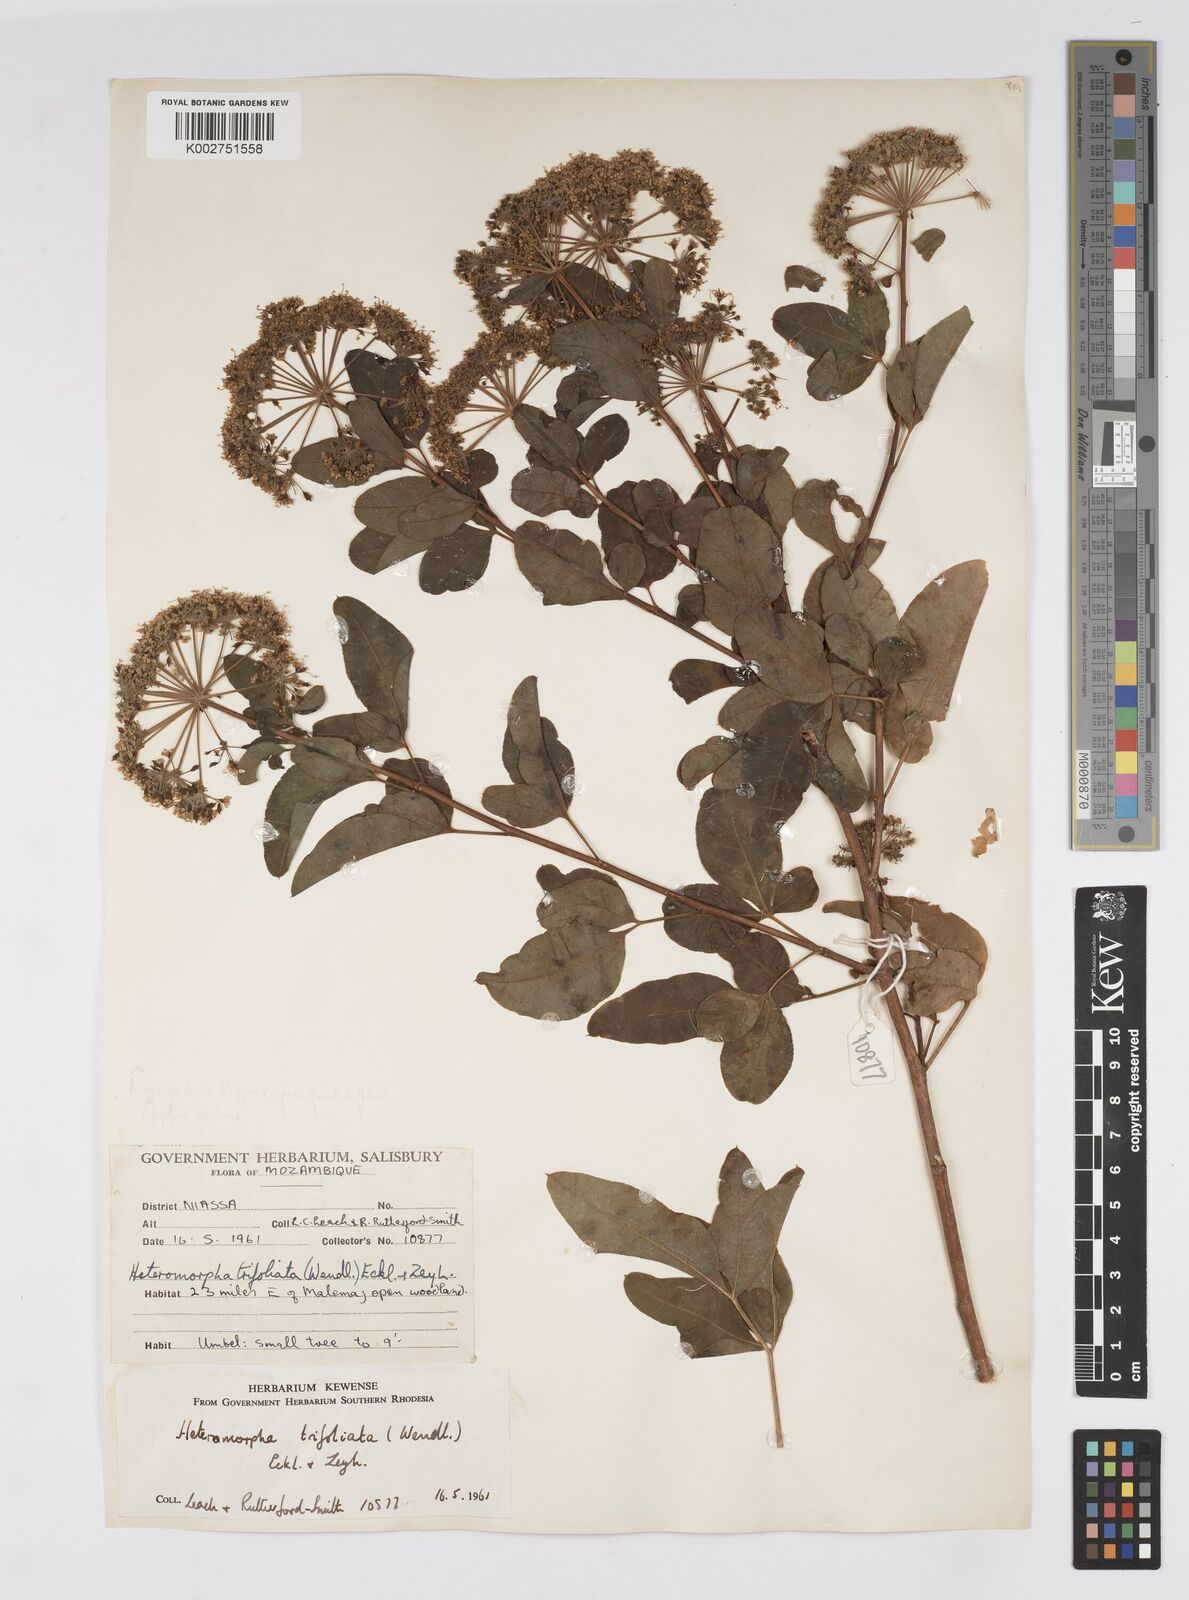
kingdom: Plantae
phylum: Tracheophyta
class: Magnoliopsida
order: Apiales
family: Apiaceae
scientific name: Apiaceae
